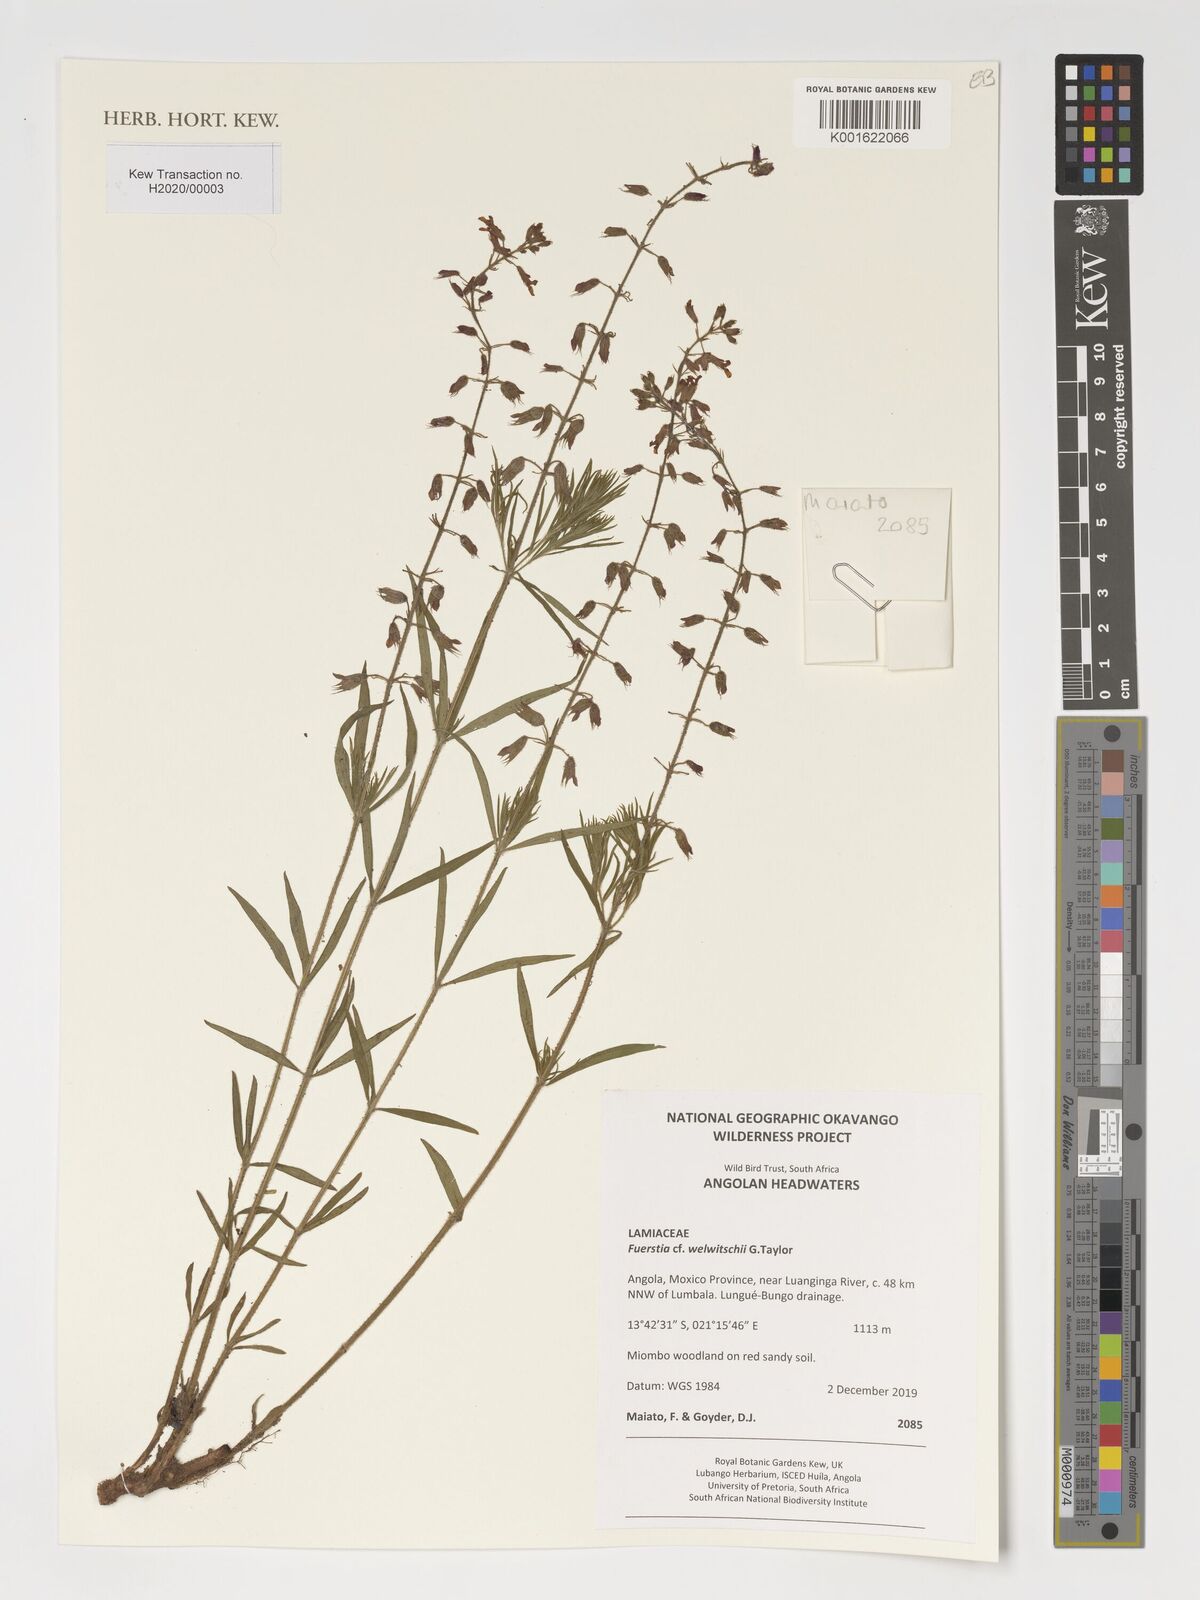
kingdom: Plantae
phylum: Tracheophyta
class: Magnoliopsida
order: Lamiales
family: Lamiaceae
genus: Fuerstia
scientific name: Fuerstia welwitschii
